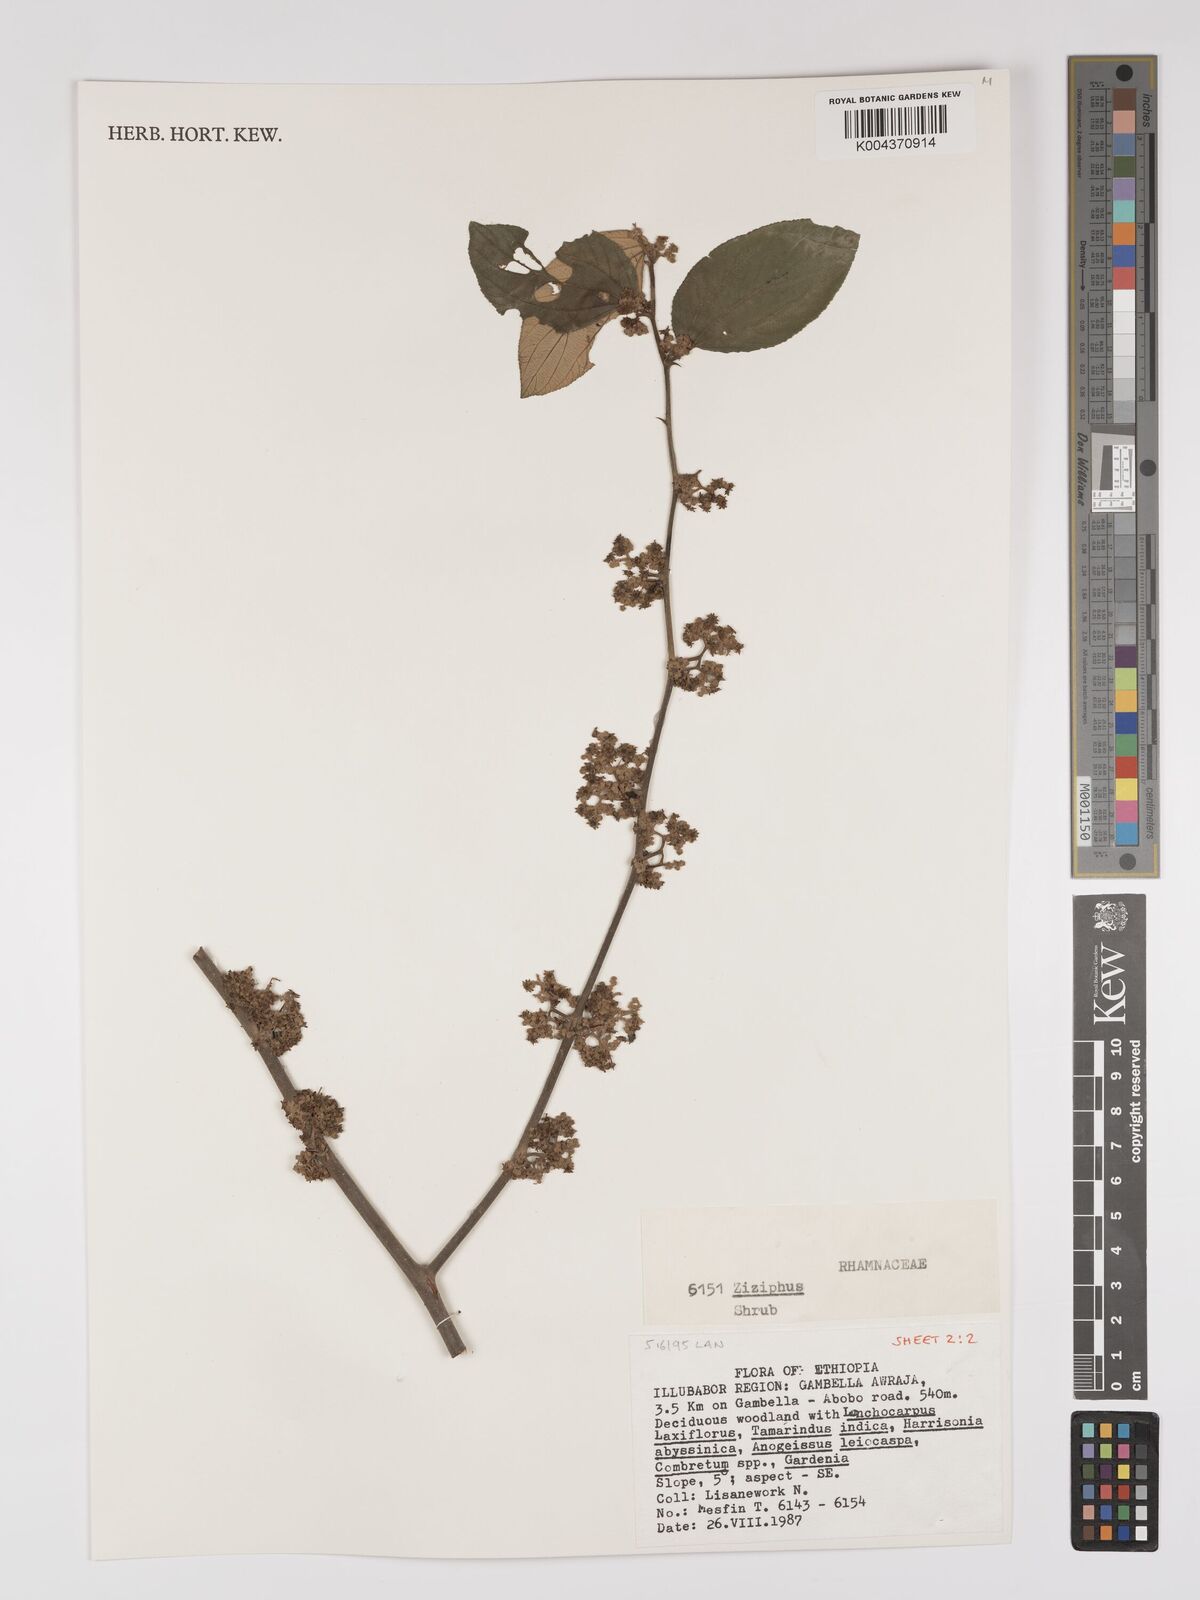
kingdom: Plantae
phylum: Tracheophyta
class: Magnoliopsida
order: Rosales
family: Rhamnaceae
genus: Ziziphus
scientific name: Ziziphus
